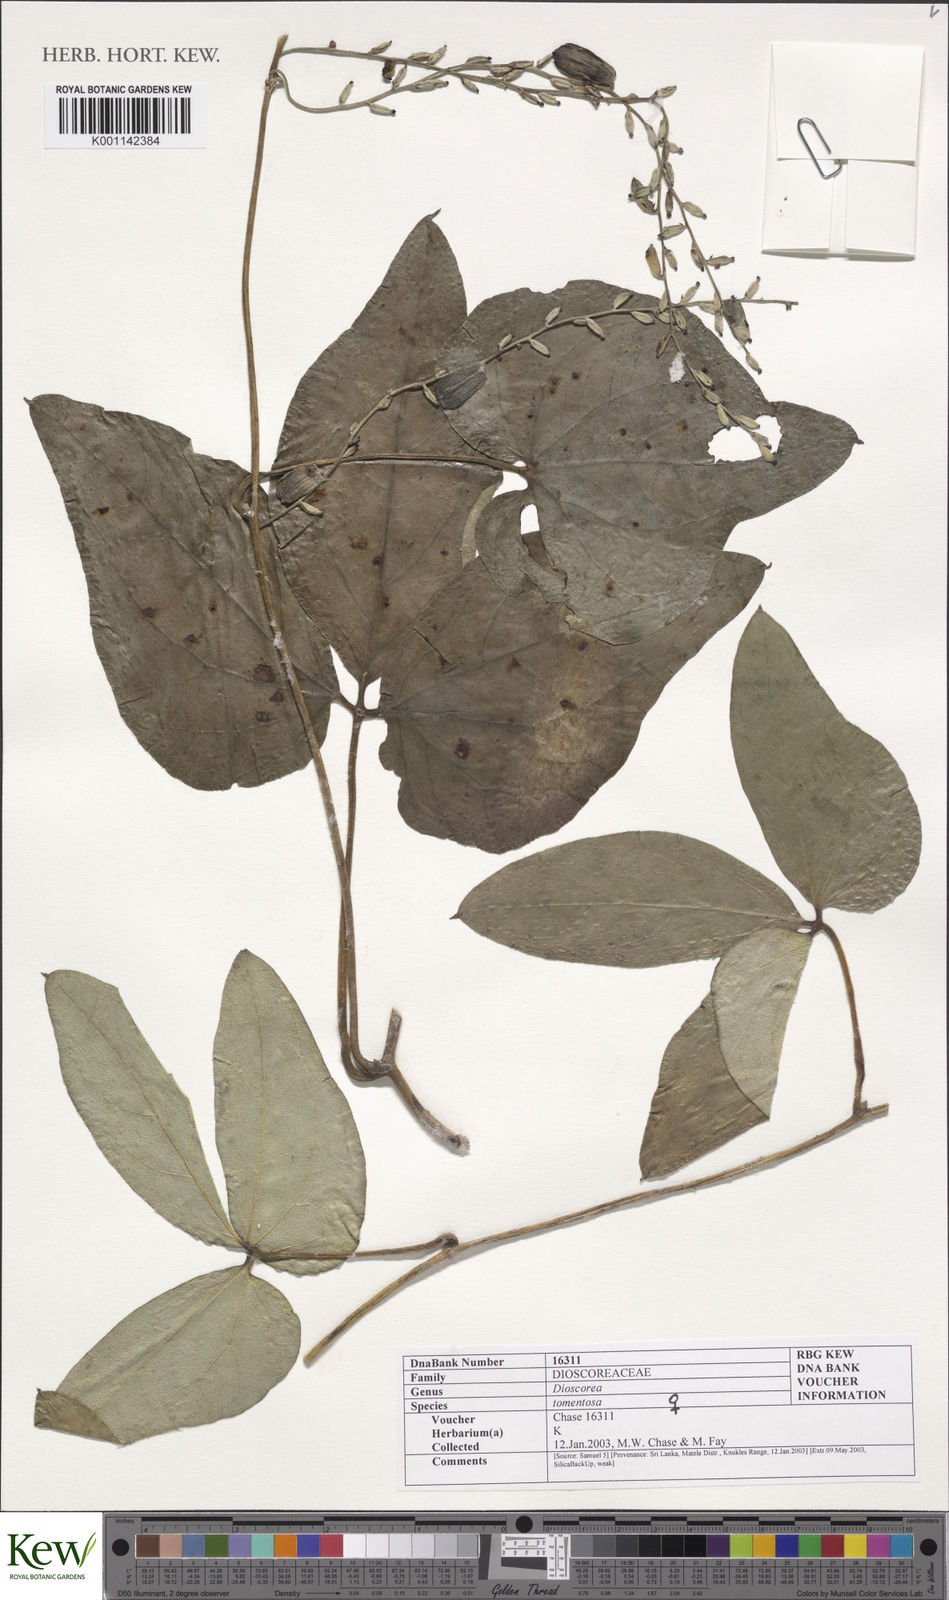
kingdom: Plantae
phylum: Tracheophyta
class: Liliopsida
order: Dioscoreales
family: Dioscoreaceae
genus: Dioscorea
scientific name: Dioscorea
